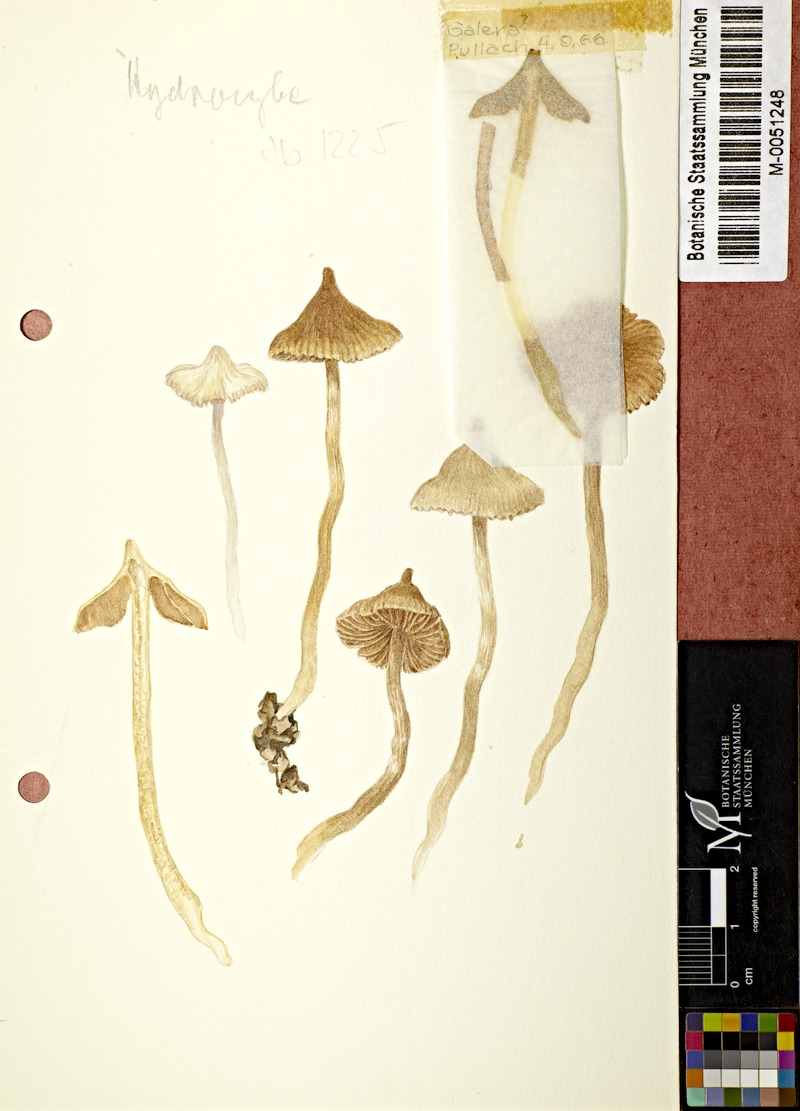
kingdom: Fungi
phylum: Basidiomycota
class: Agaricomycetes
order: Agaricales
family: Cortinariaceae
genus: Cortinarius
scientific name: Cortinarius
